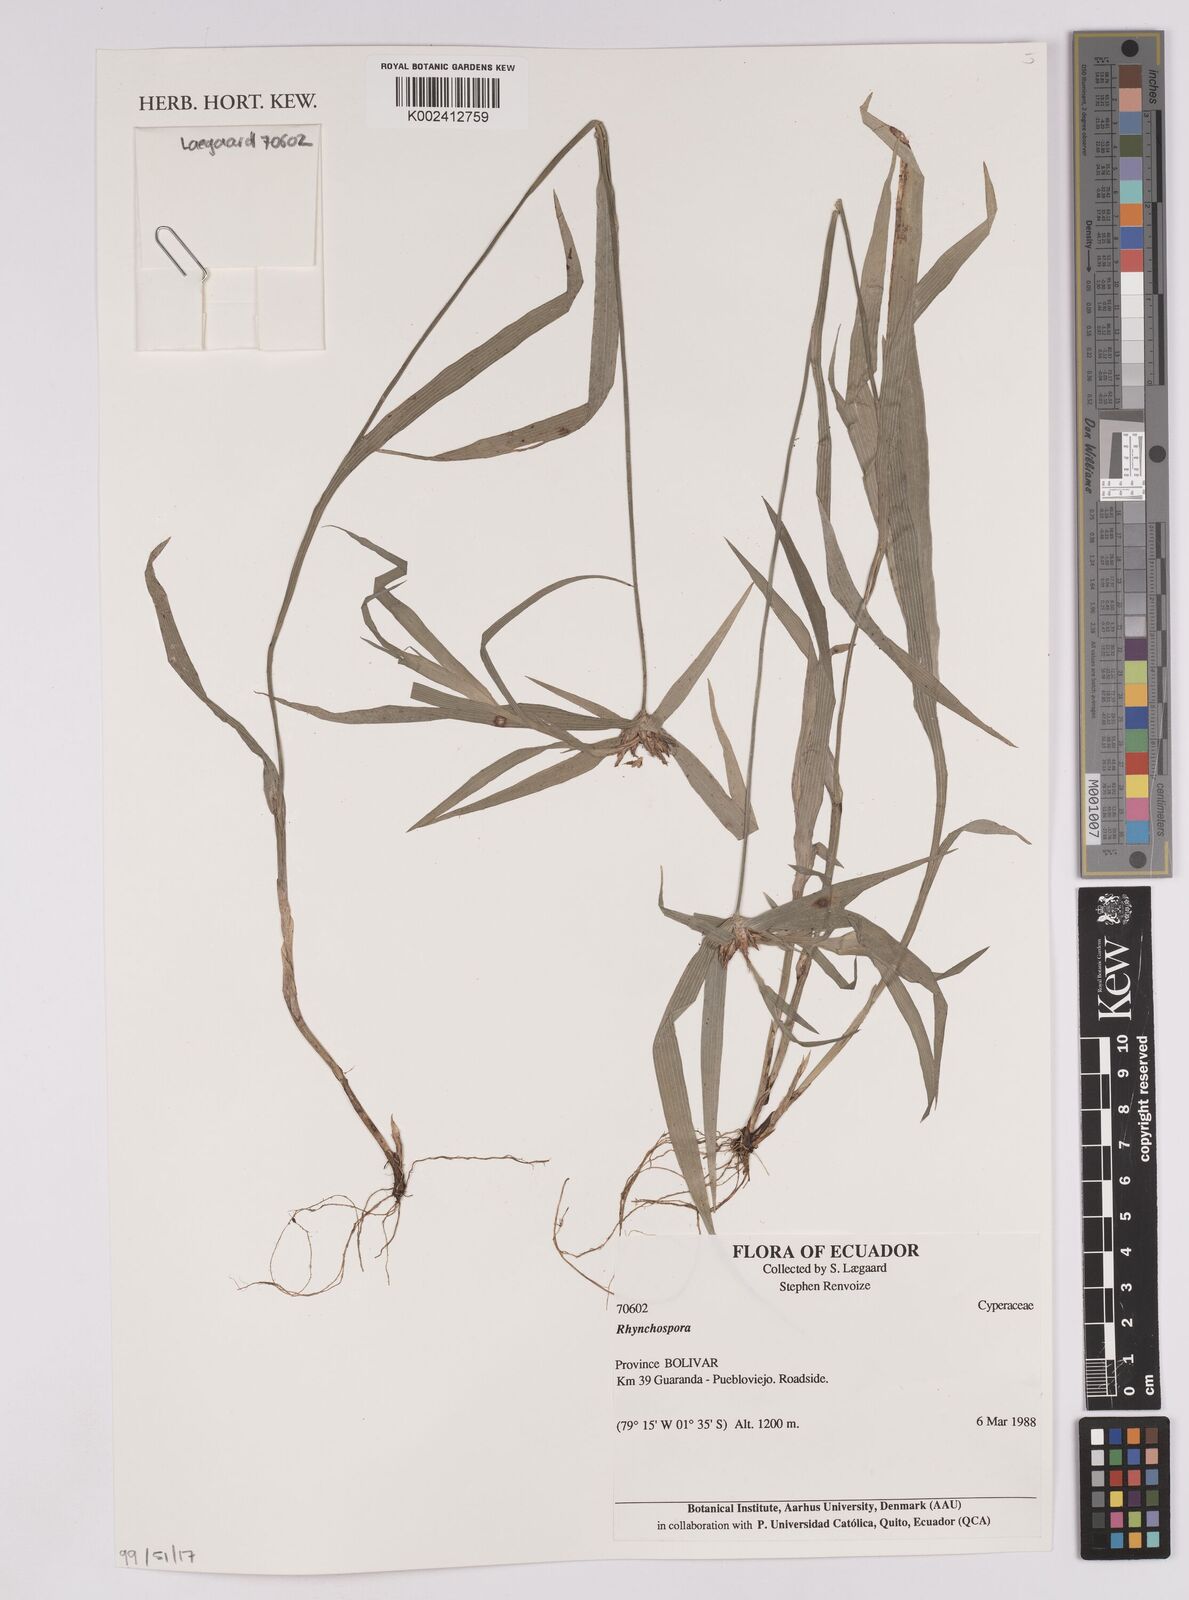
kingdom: Plantae
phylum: Tracheophyta
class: Liliopsida
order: Poales
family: Cyperaceae
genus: Rhynchospora
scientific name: Rhynchospora
